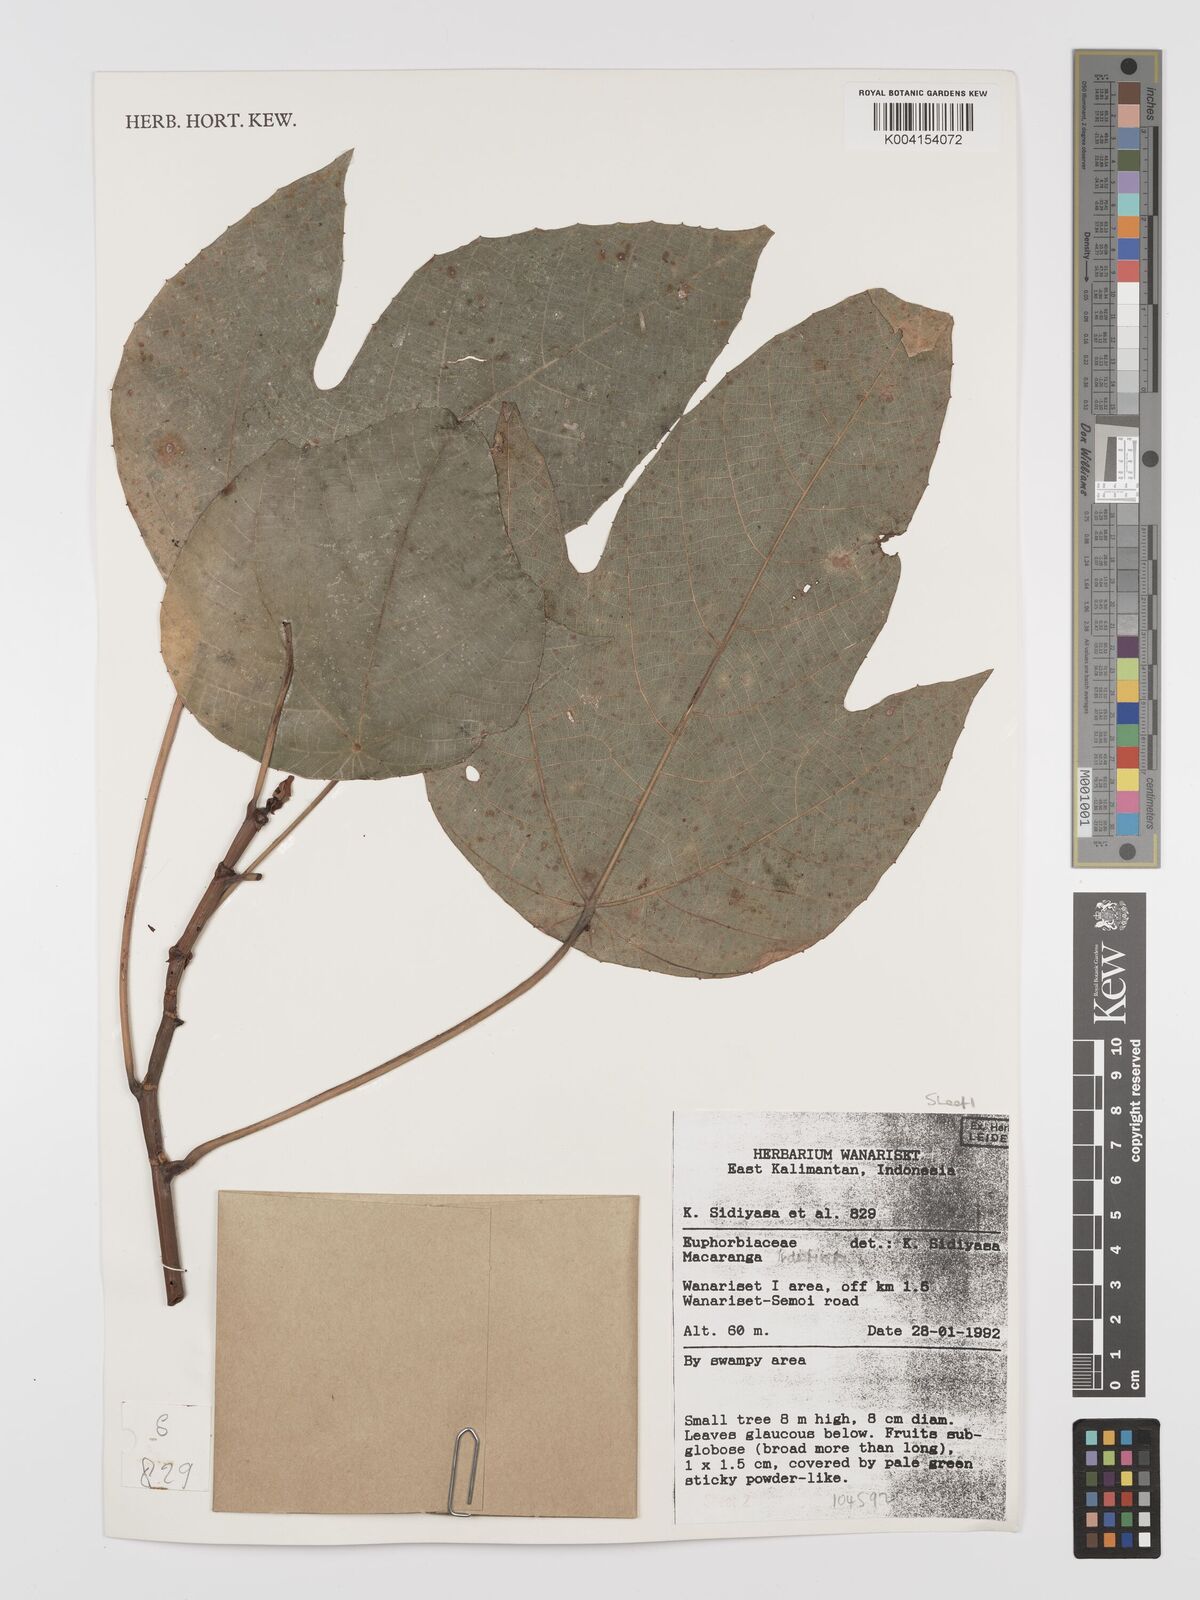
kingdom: Plantae
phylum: Tracheophyta
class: Magnoliopsida
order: Malpighiales
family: Euphorbiaceae
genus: Macaranga
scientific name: Macaranga indistincta
